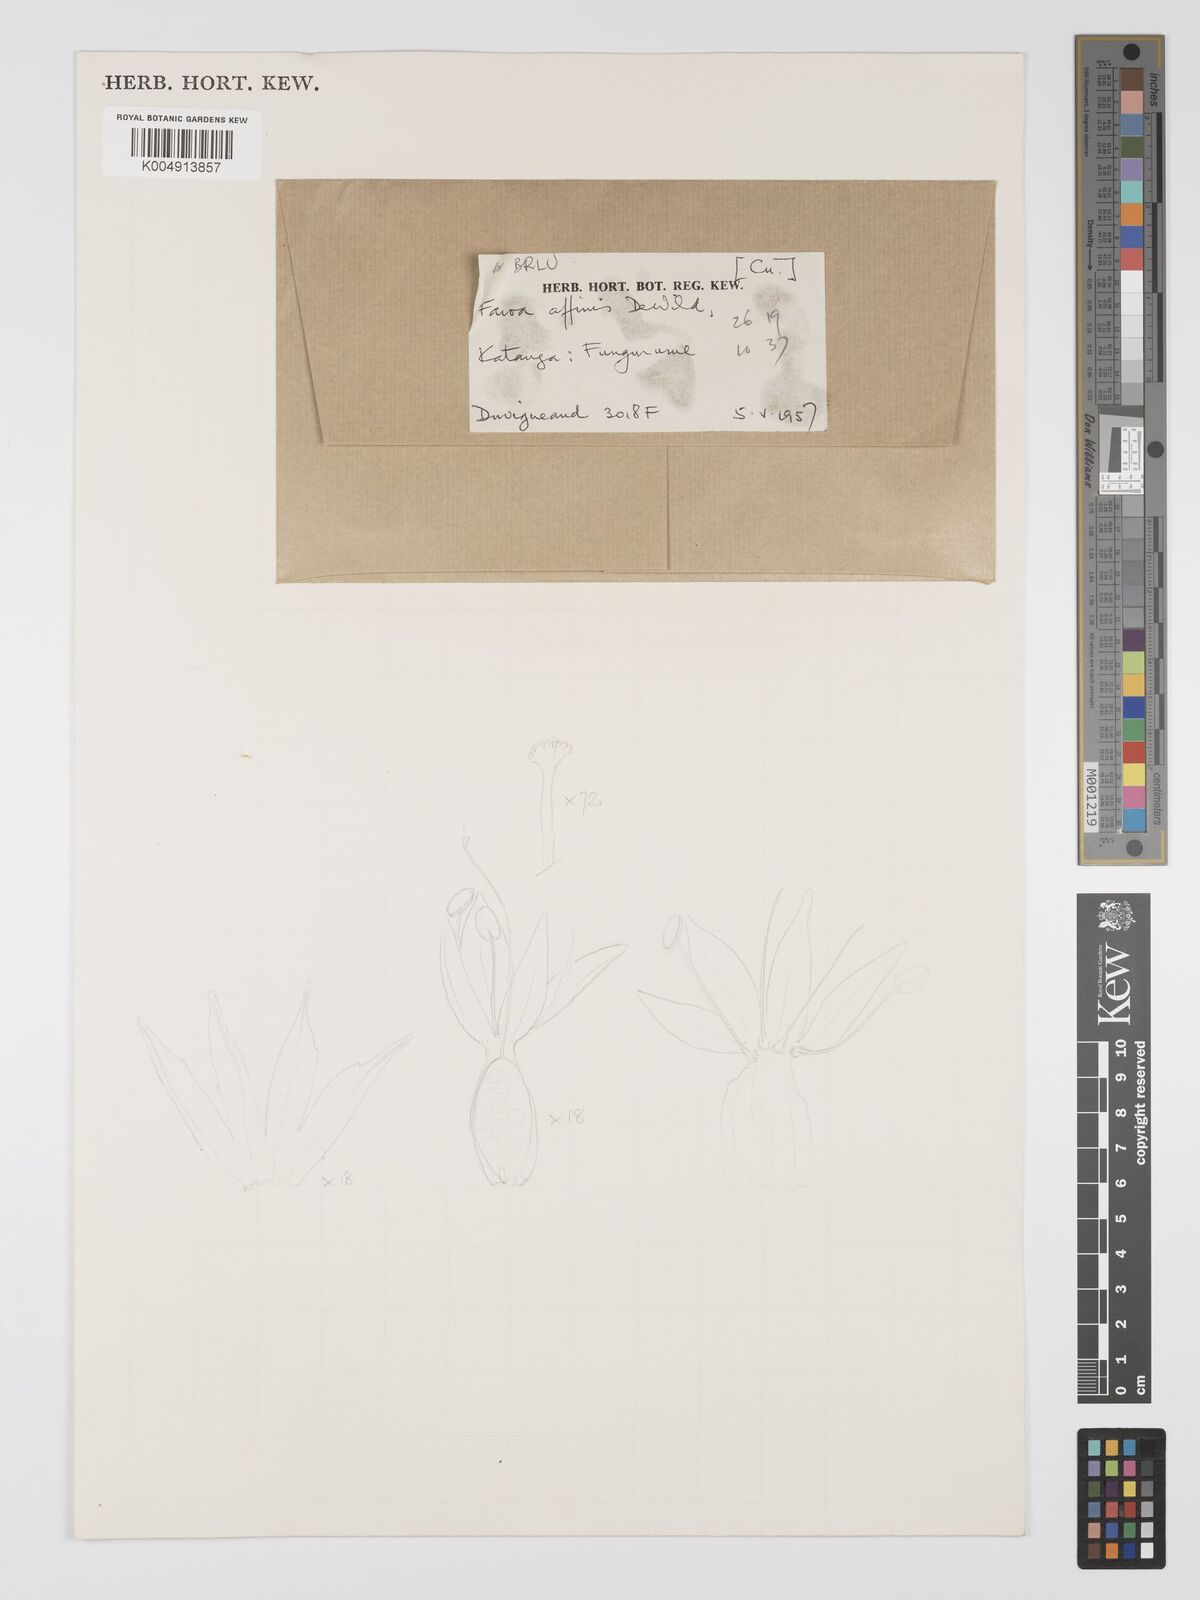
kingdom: Plantae
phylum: Tracheophyta
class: Magnoliopsida
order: Gentianales
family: Gentianaceae
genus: Faroa
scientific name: Faroa affinis
